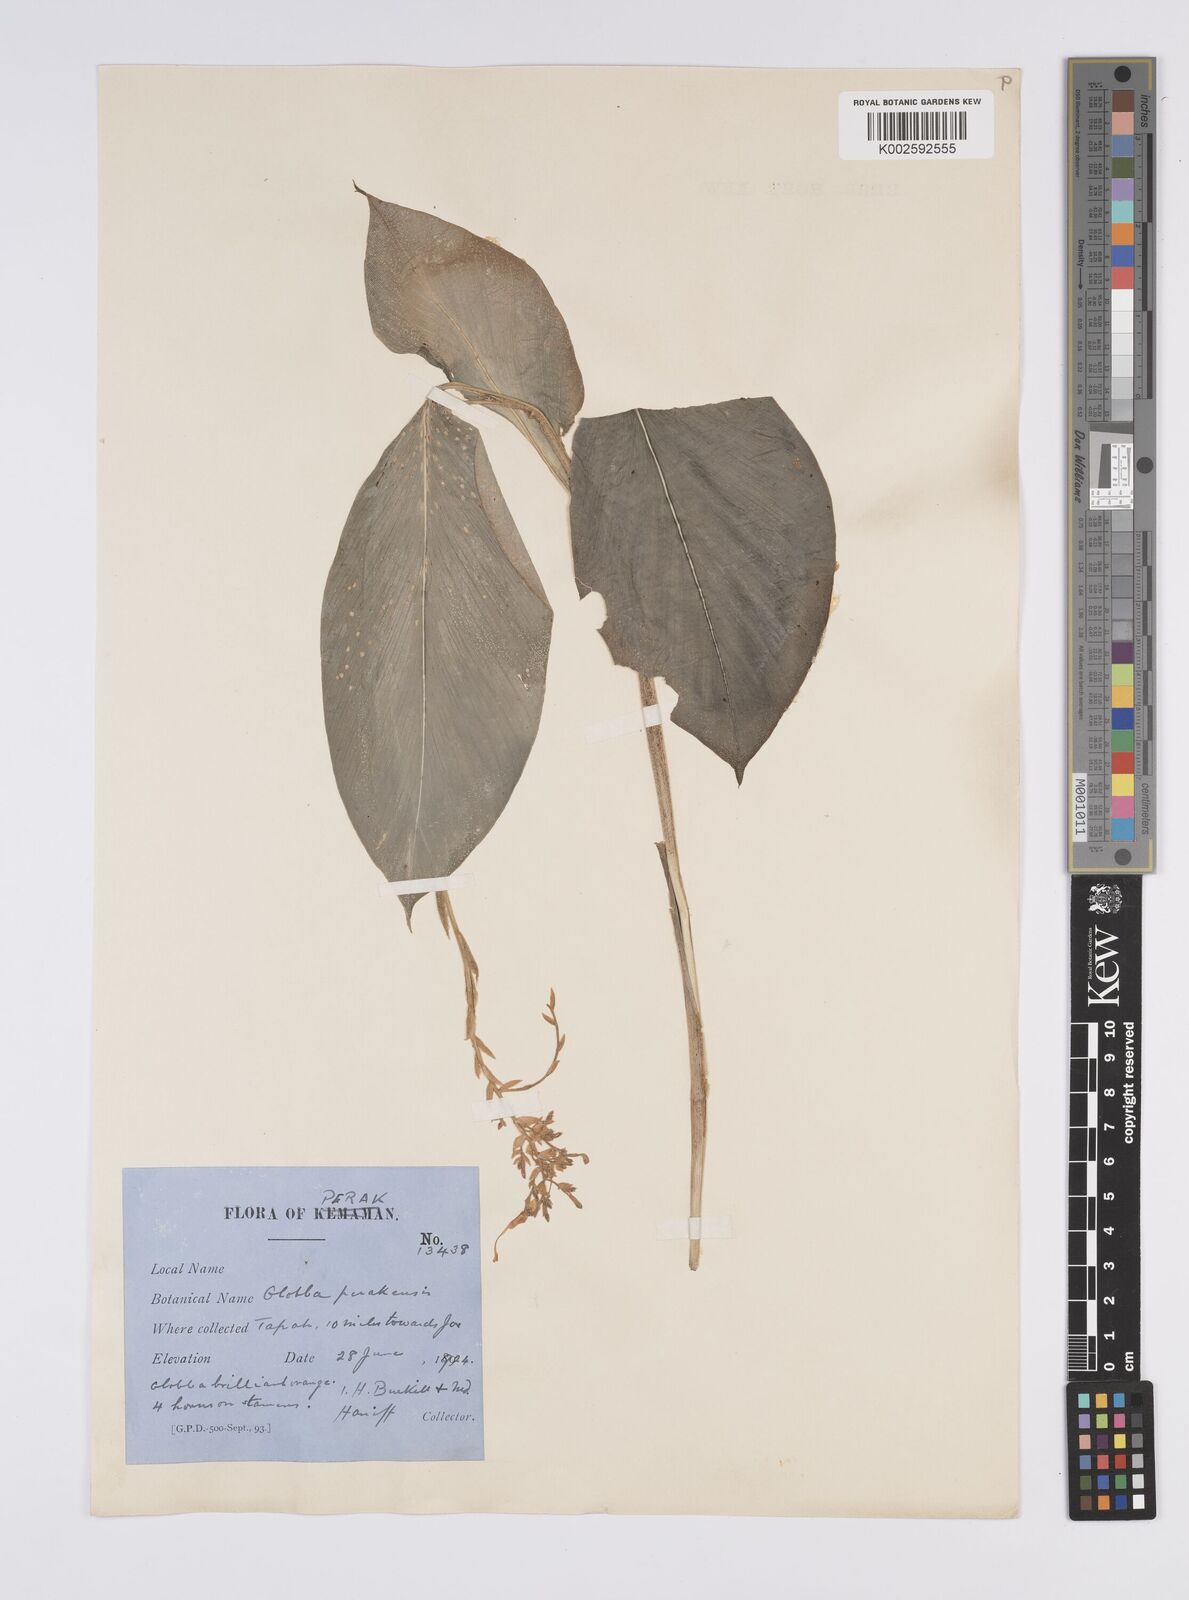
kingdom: Plantae
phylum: Tracheophyta
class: Liliopsida
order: Zingiberales
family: Zingiberaceae
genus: Globba
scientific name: Globba variabilis
